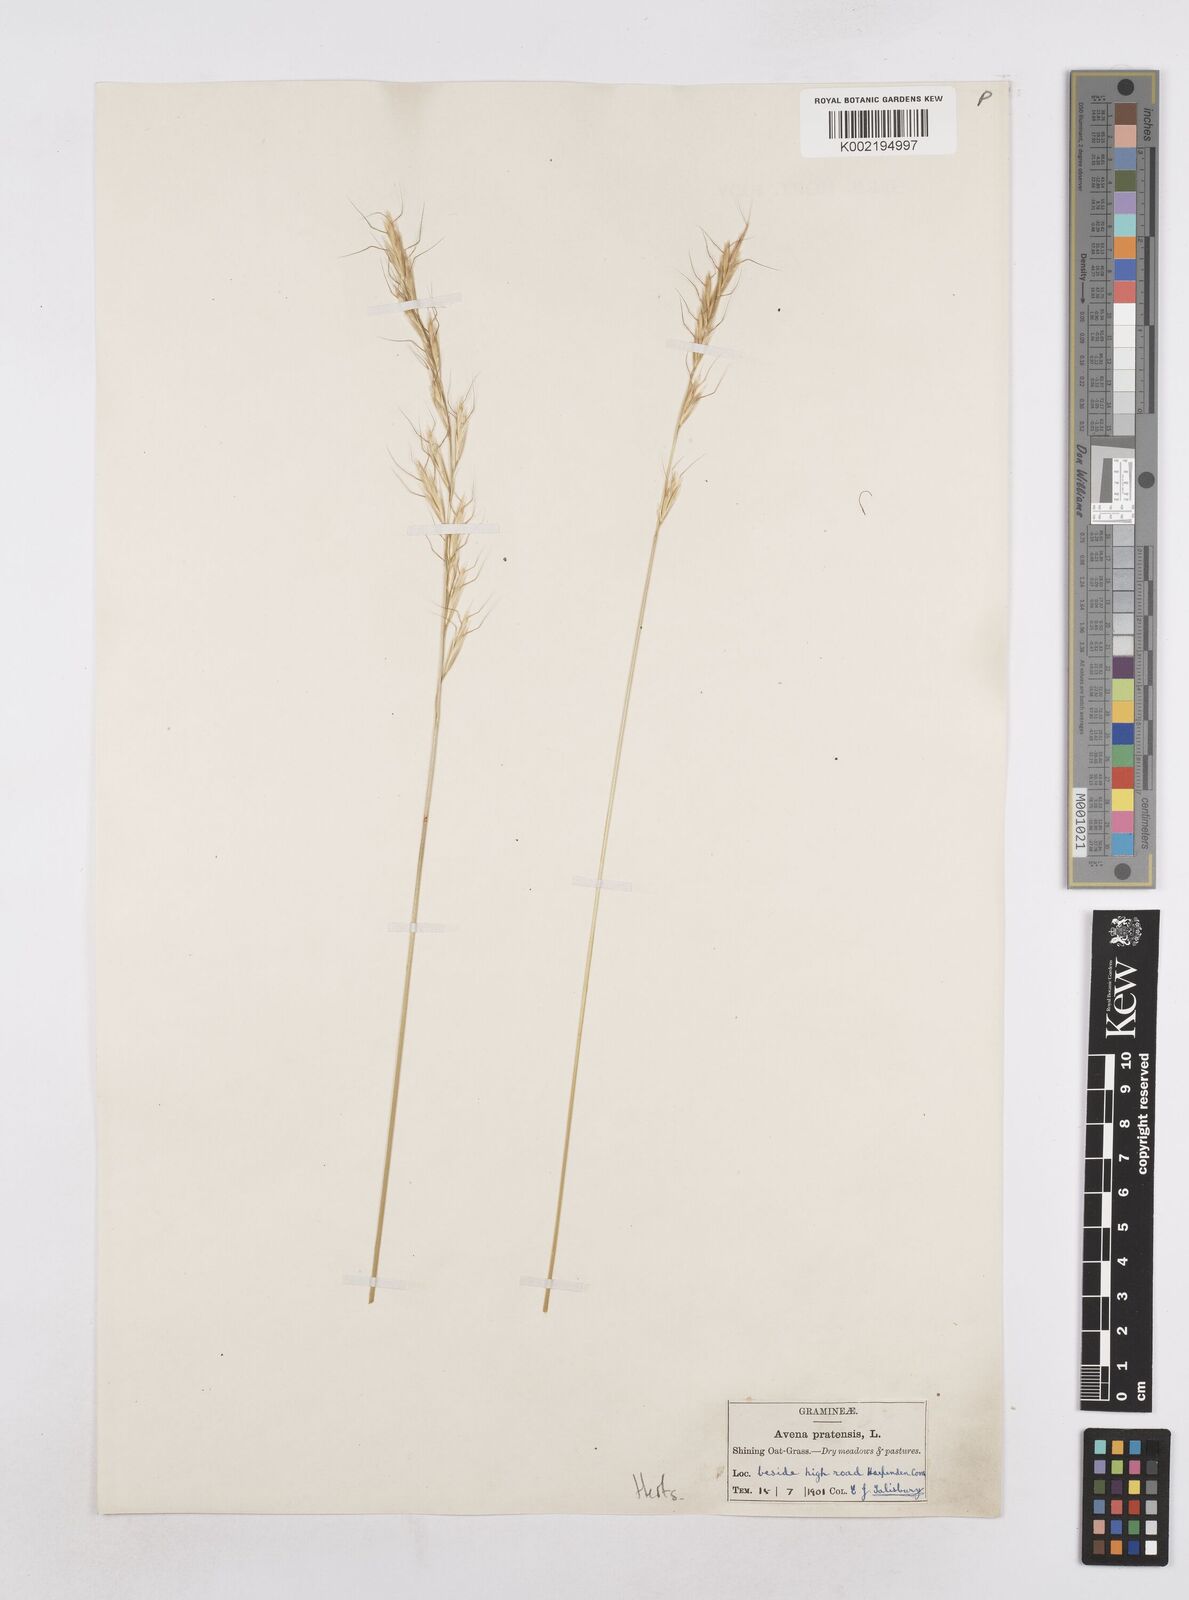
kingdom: Plantae
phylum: Tracheophyta
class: Liliopsida
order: Poales
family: Poaceae
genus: Helictochloa
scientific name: Helictochloa pratensis
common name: Meadow oat grass
